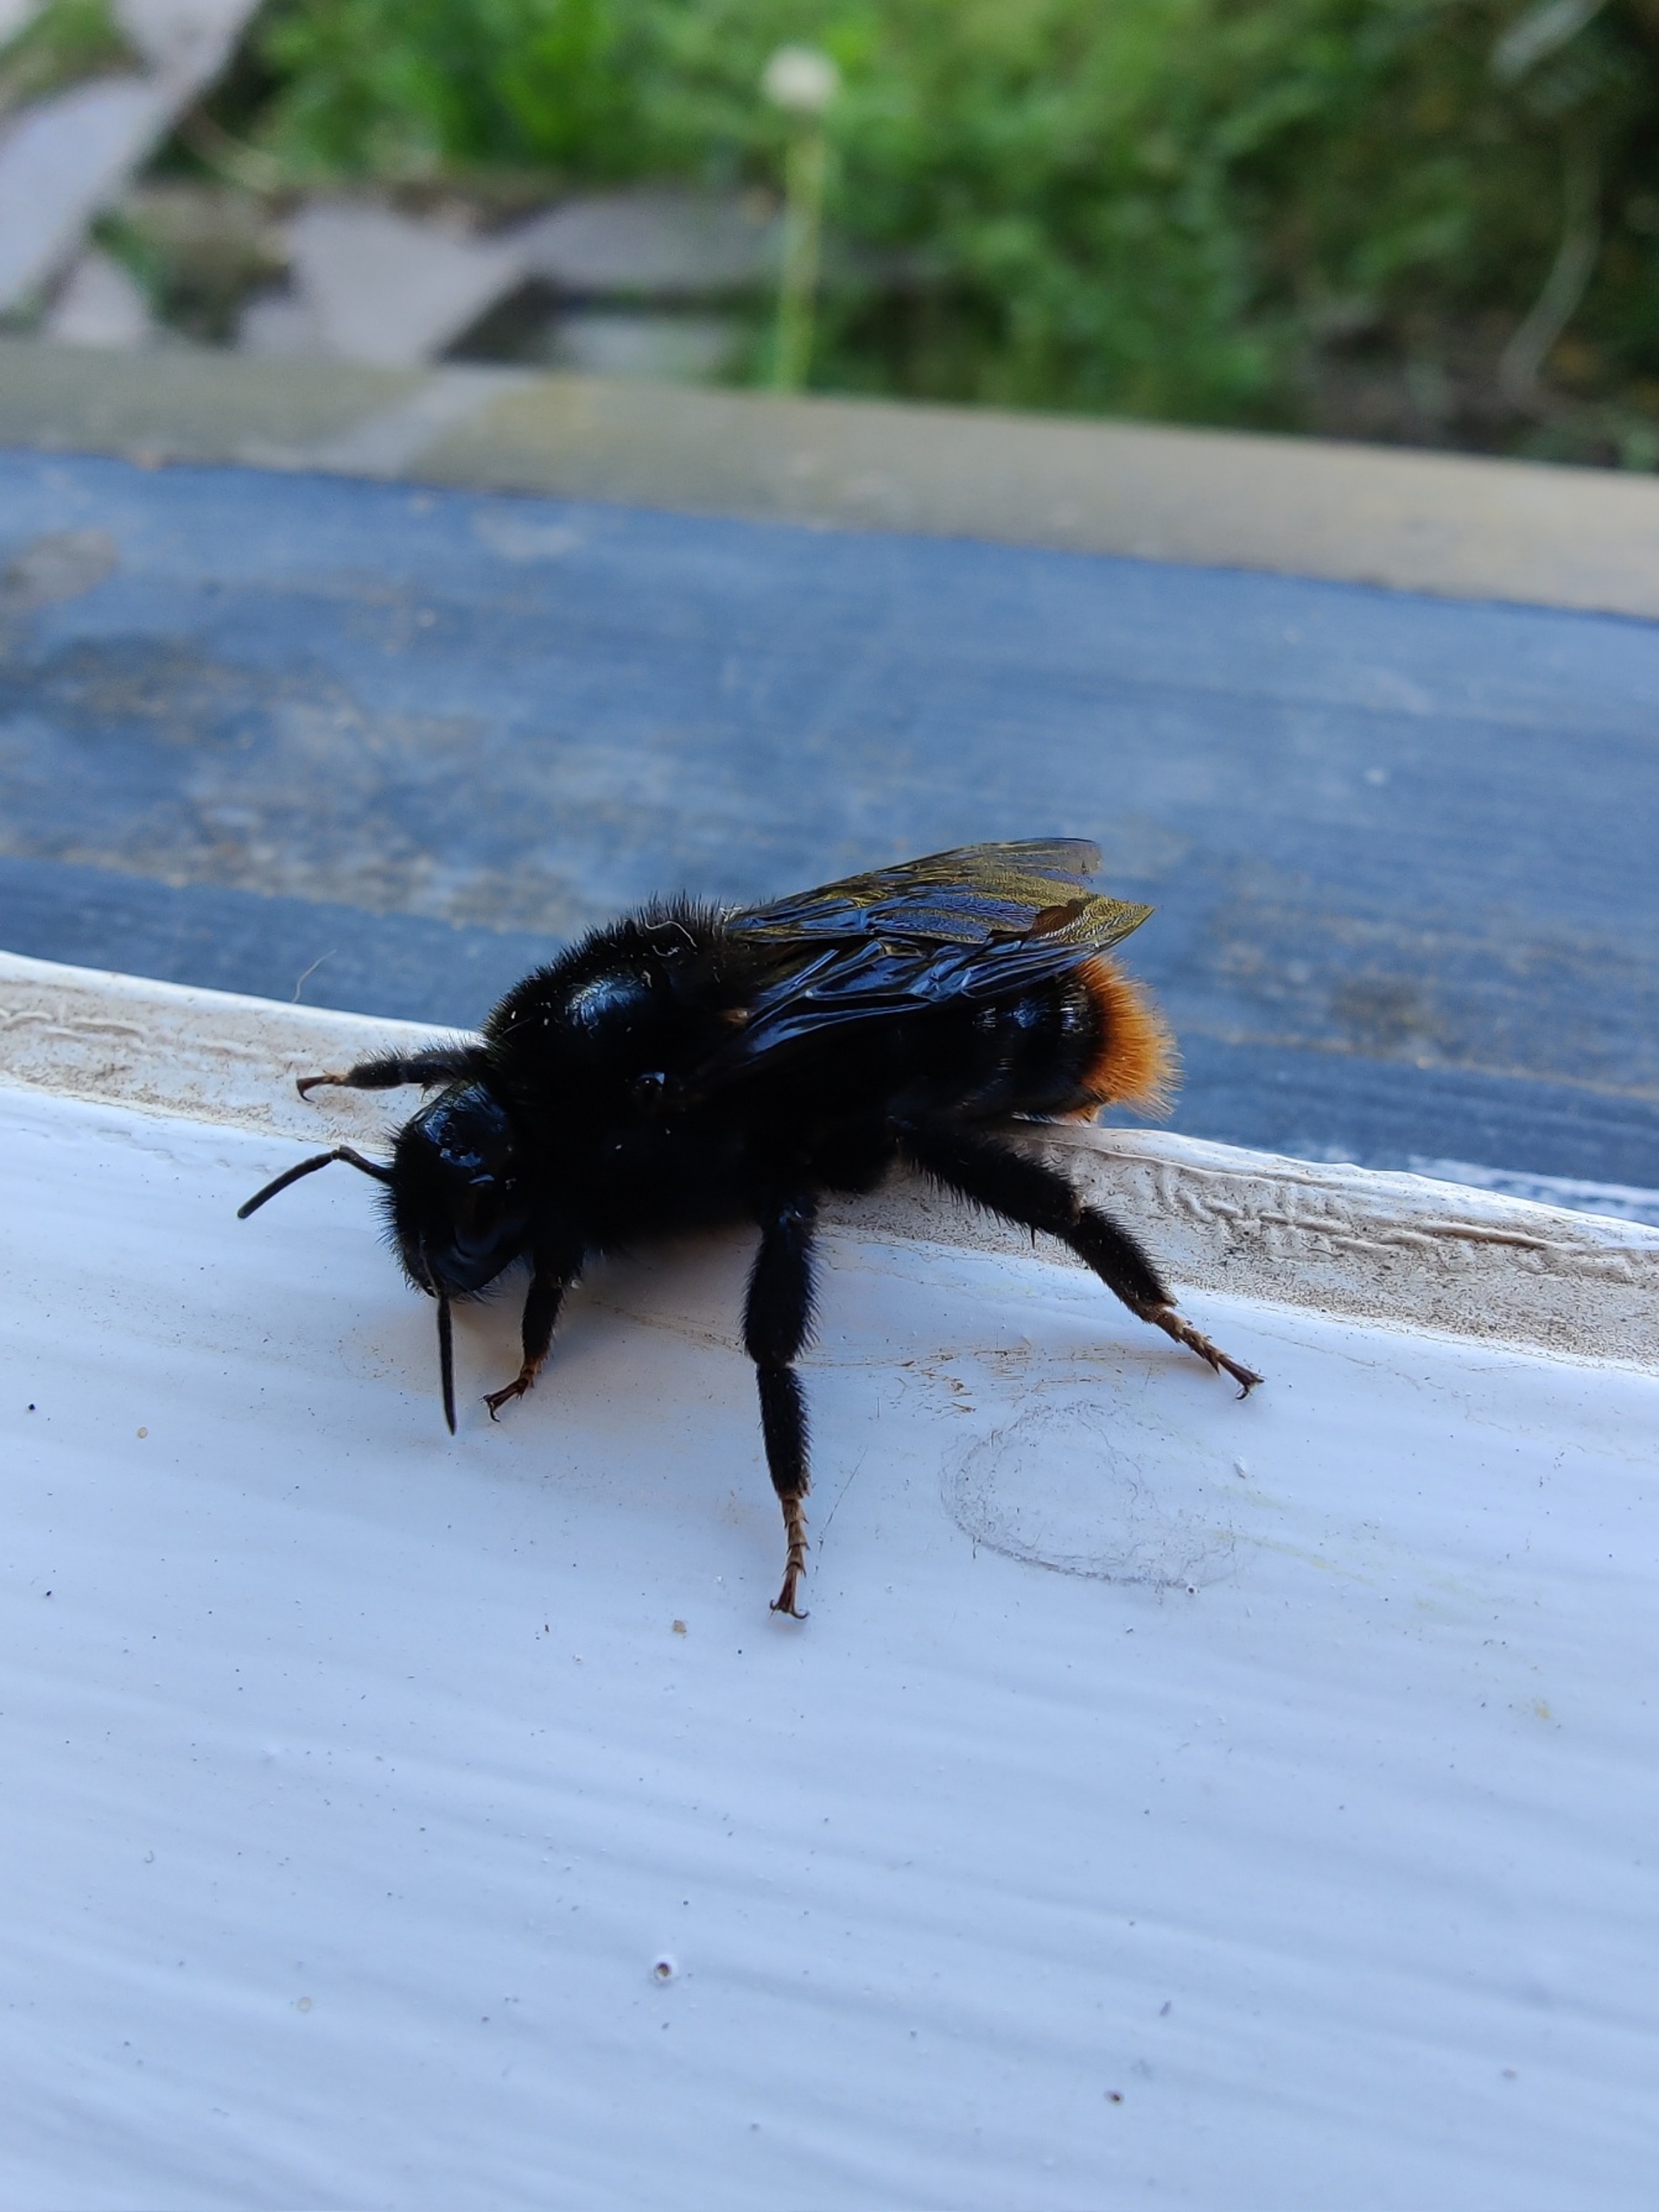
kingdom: Animalia
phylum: Arthropoda
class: Insecta
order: Hymenoptera
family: Apidae
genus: Bombus
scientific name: Bombus rupestris
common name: Stensnyltehumle
